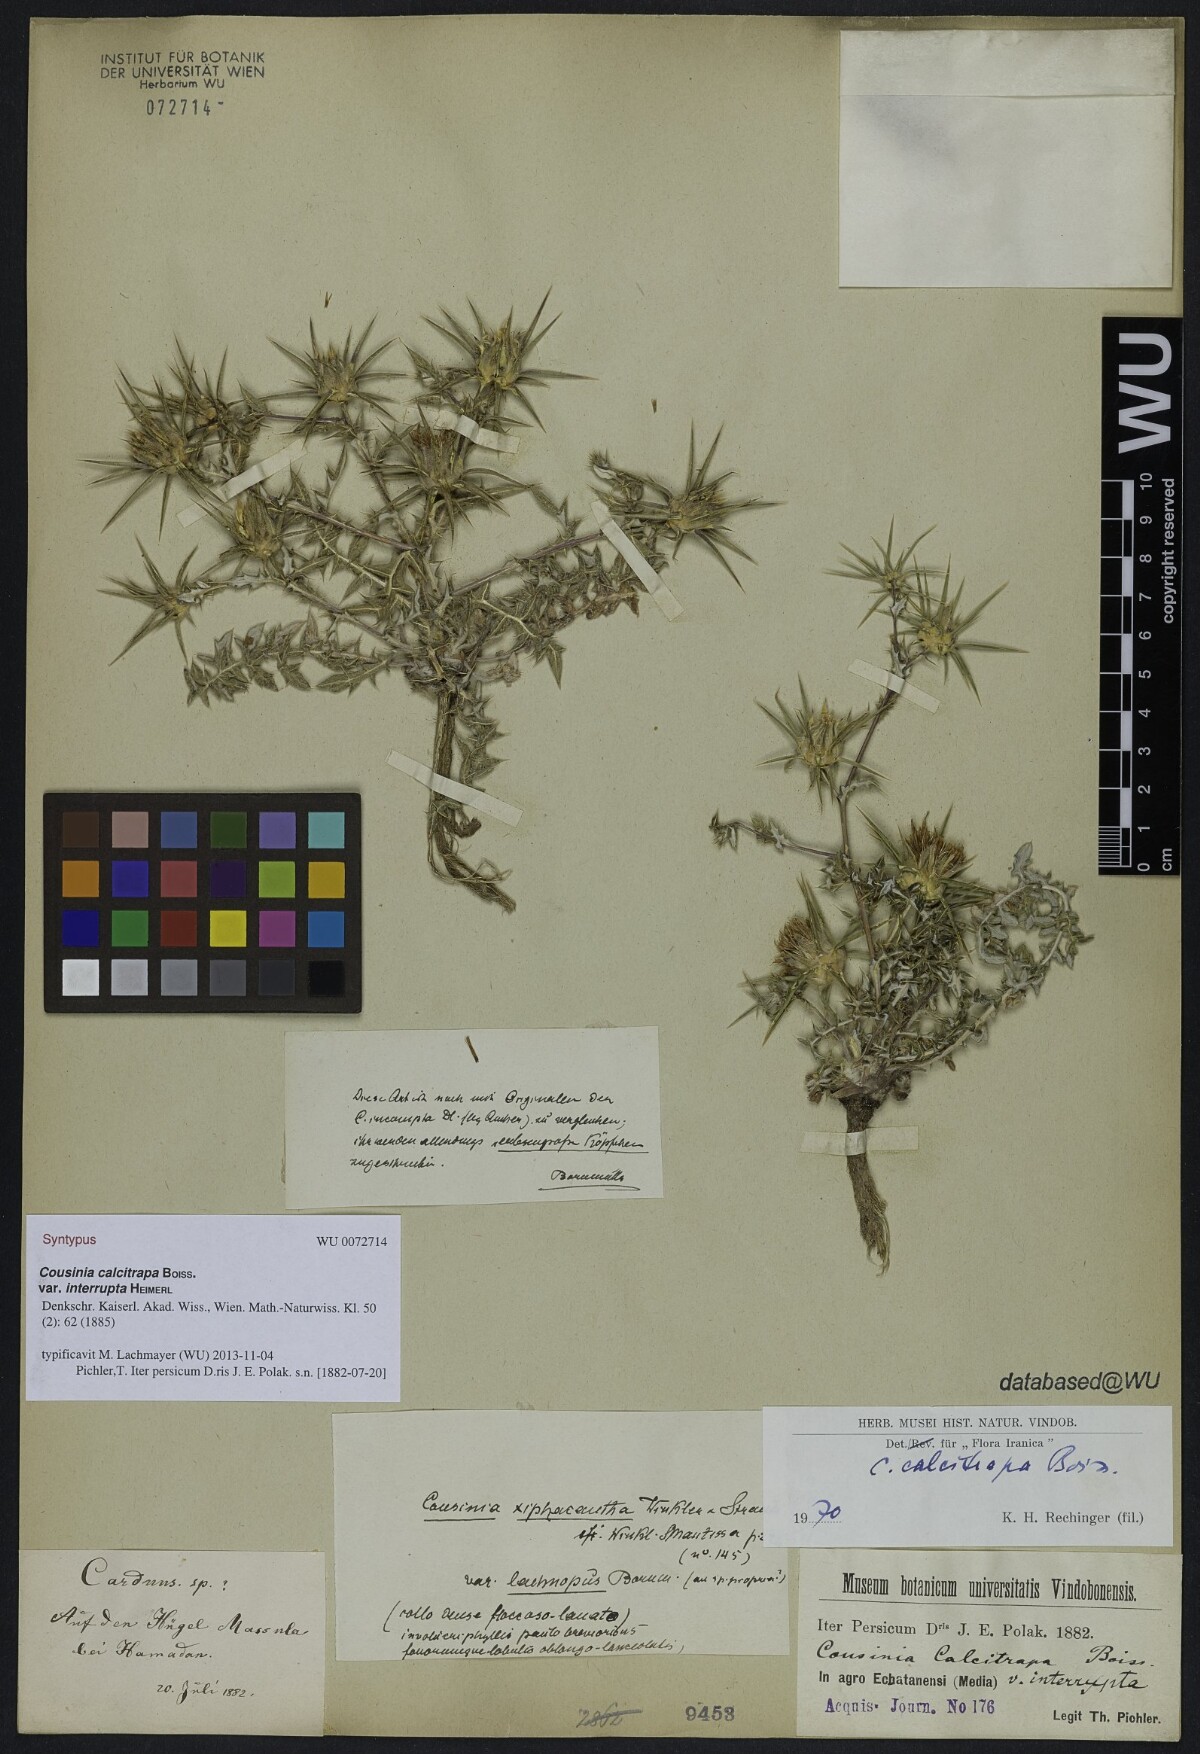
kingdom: Plantae
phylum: Tracheophyta
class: Magnoliopsida
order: Asterales
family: Asteraceae
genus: Cousinia
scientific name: Cousinia calcitrapa
